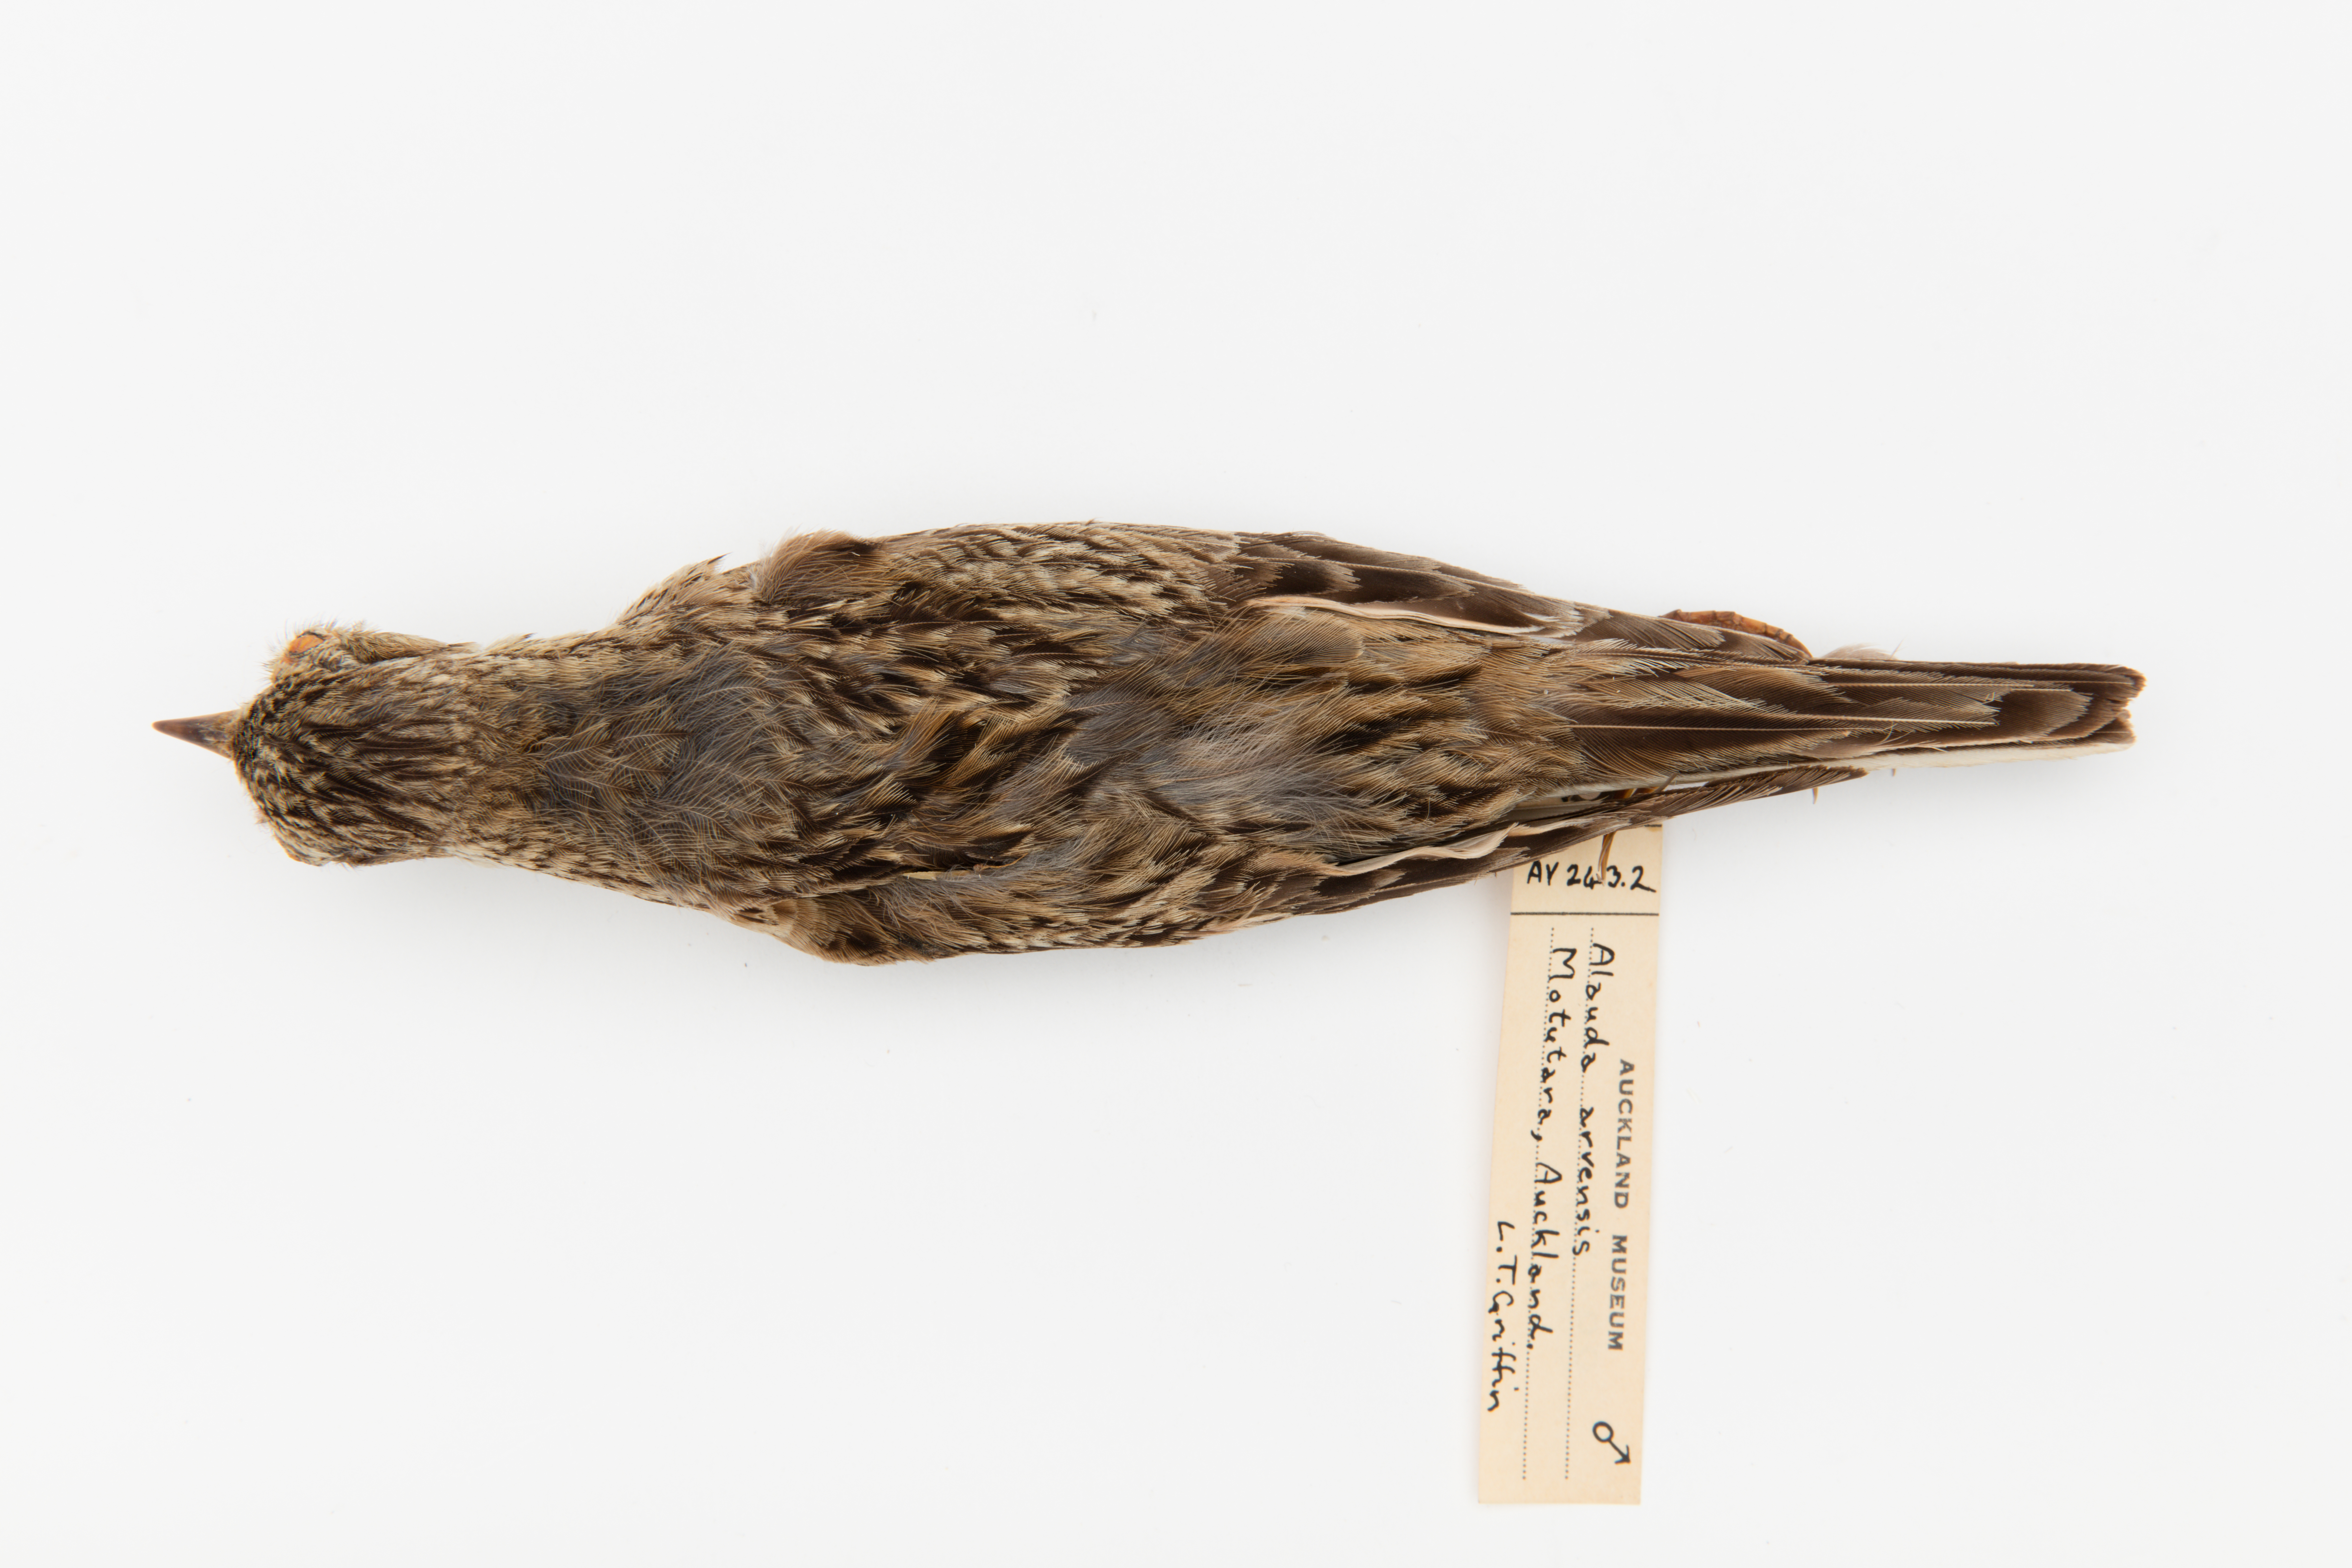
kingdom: Animalia
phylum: Chordata
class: Aves
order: Passeriformes
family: Alaudidae
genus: Alauda
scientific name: Alauda arvensis
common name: Eurasian skylark
